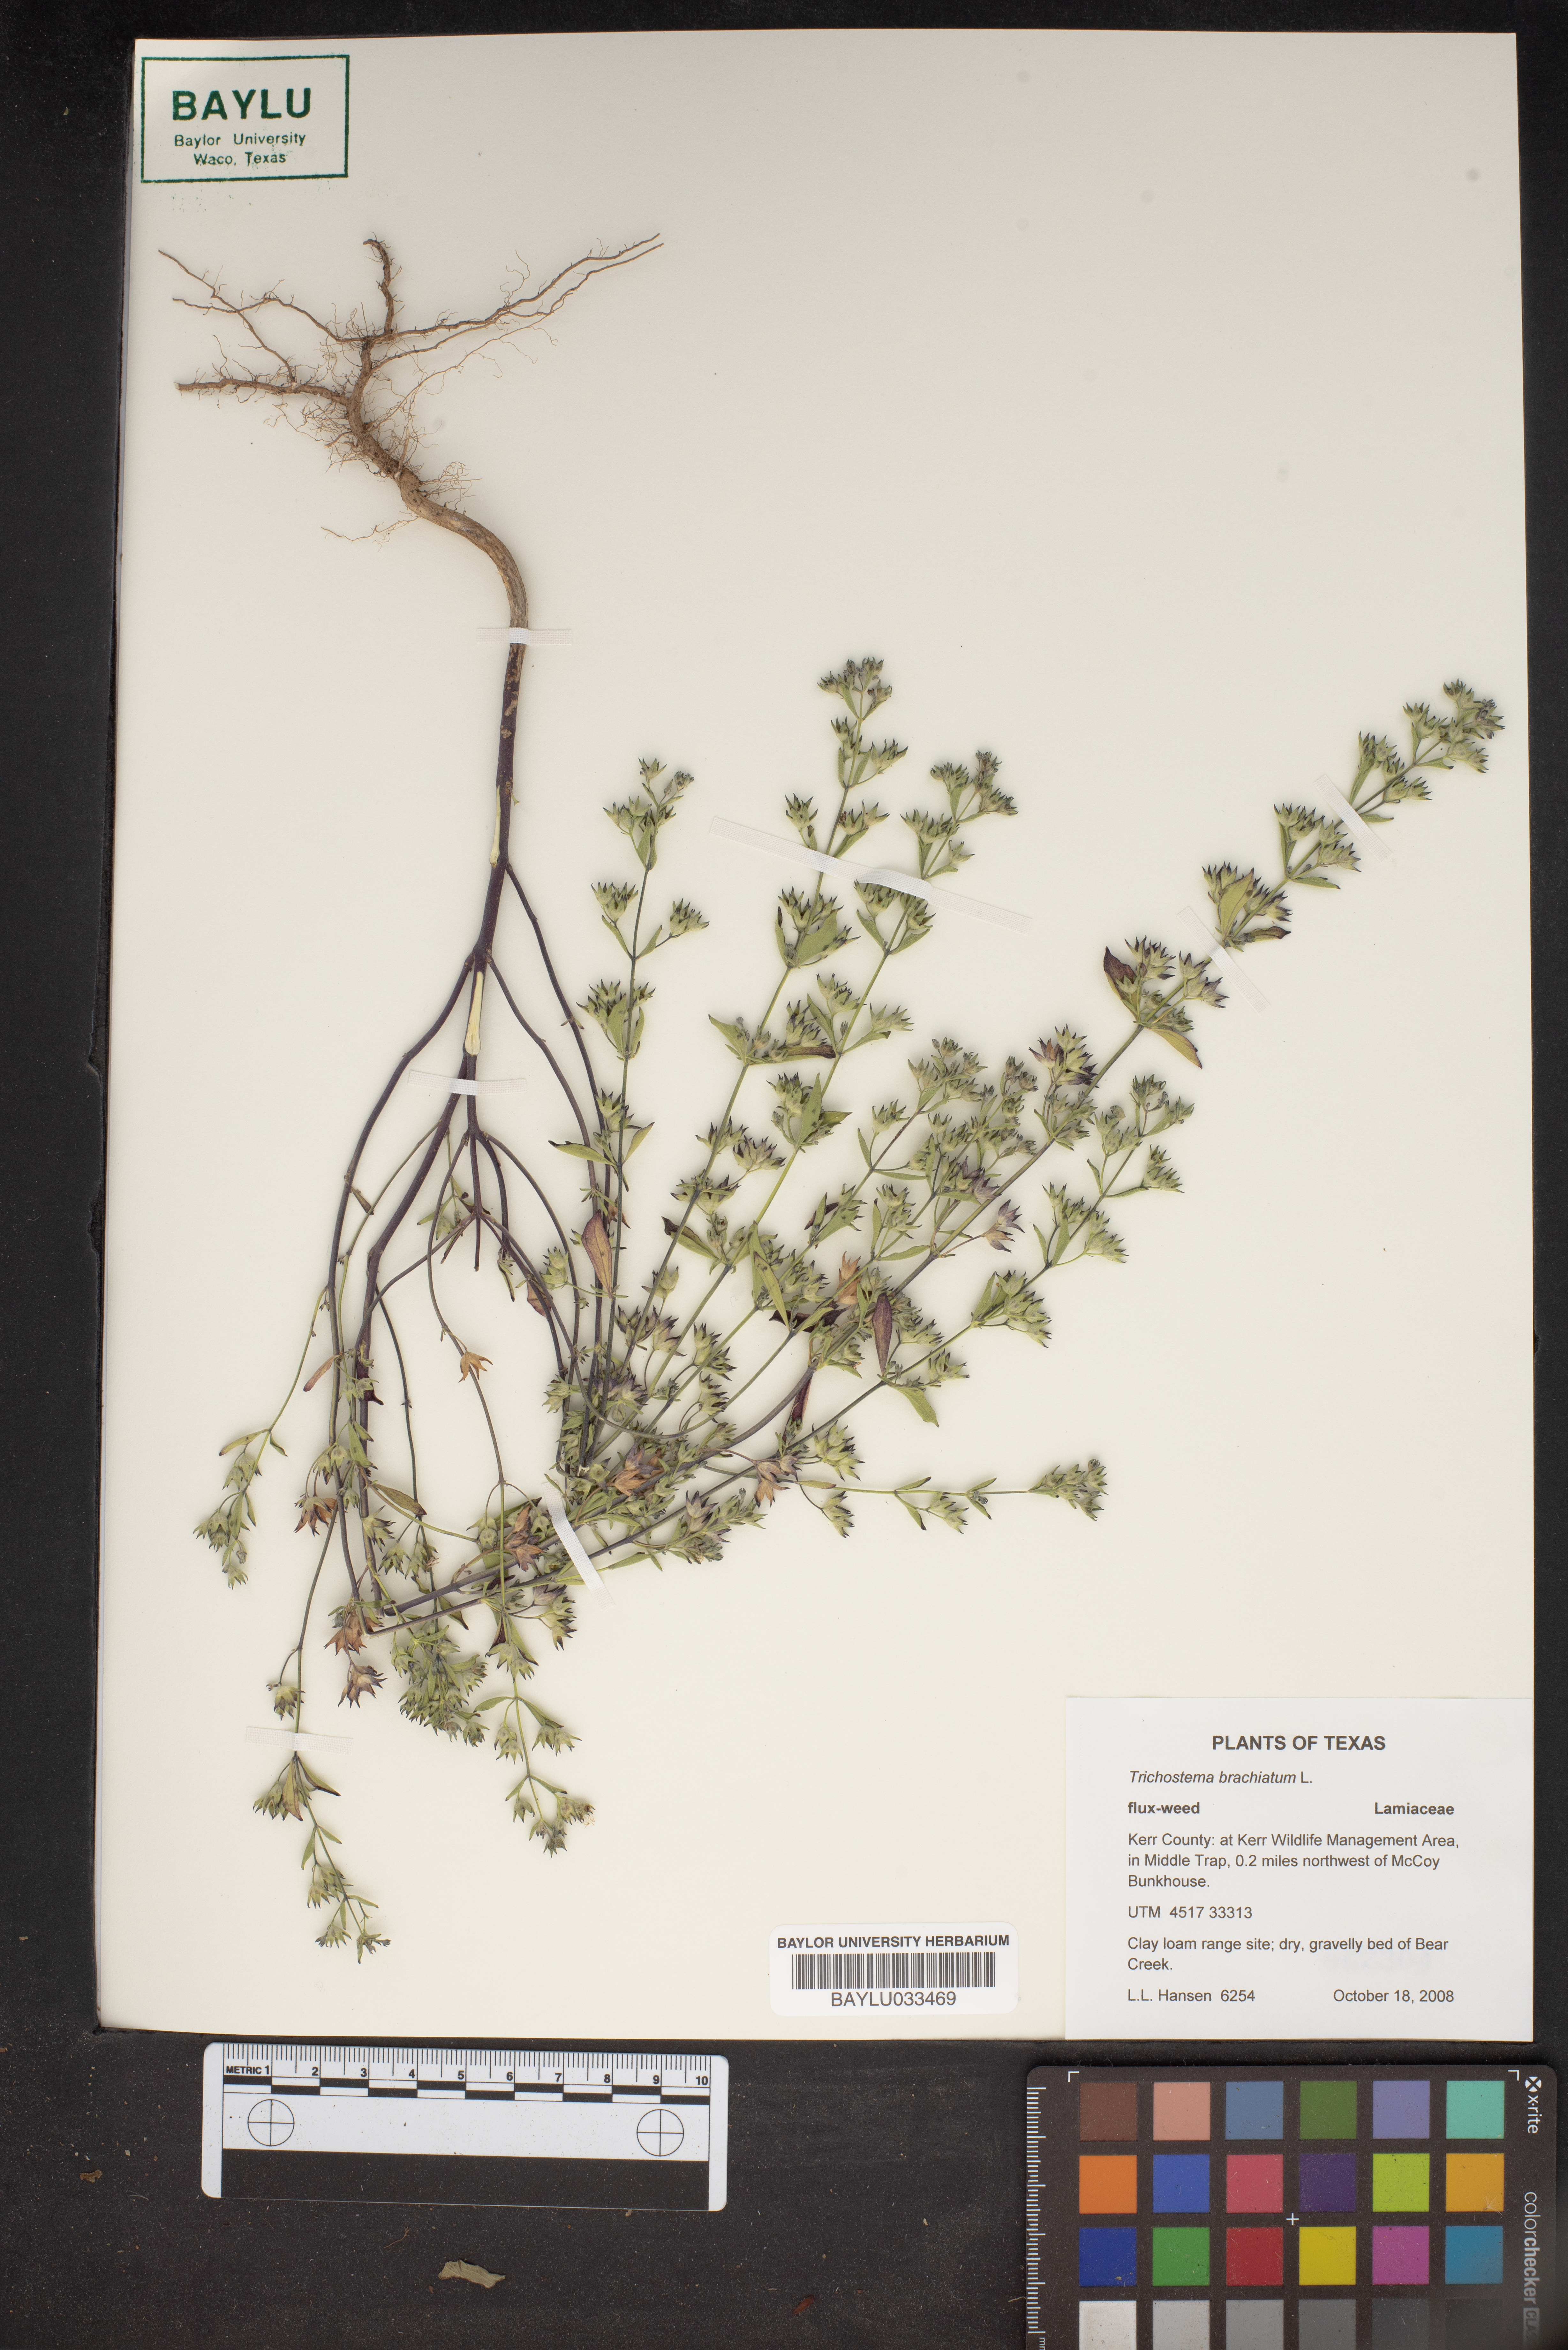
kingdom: Plantae
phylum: Tracheophyta
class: Magnoliopsida
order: Lamiales
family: Lamiaceae
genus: Trichostema
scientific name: Trichostema brachiatum
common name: False pennyroyal
